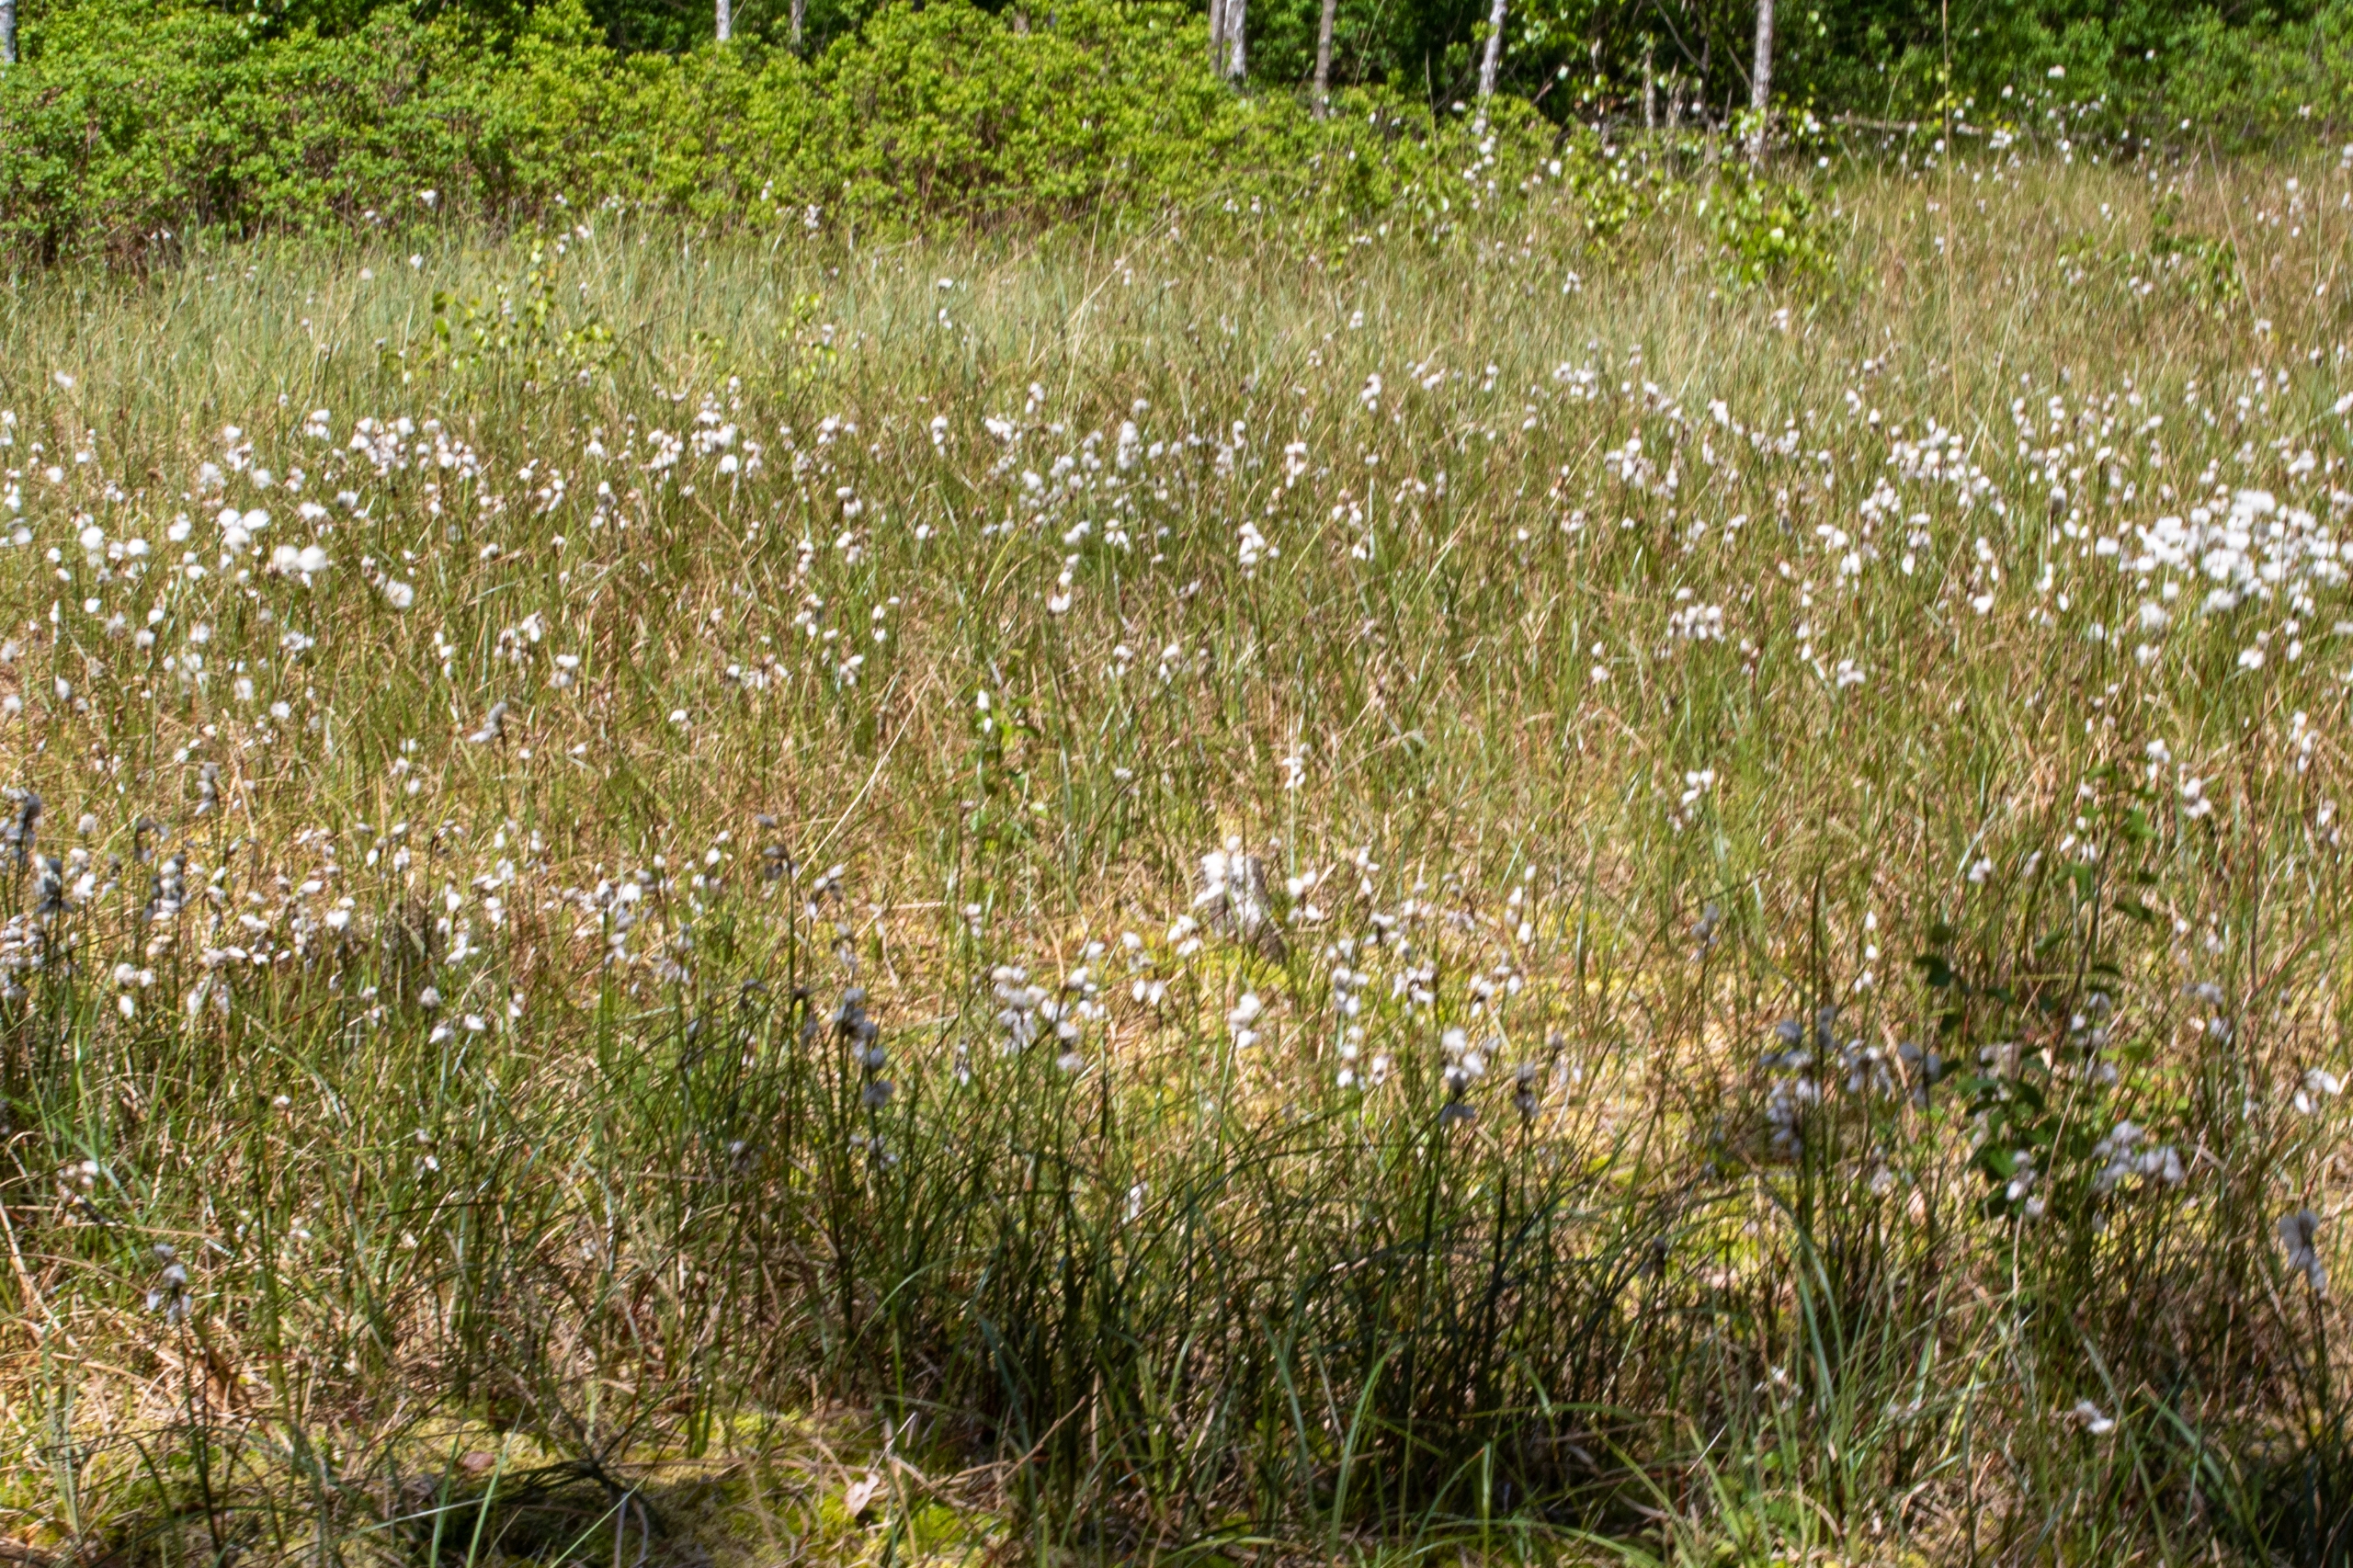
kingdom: Plantae
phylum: Tracheophyta
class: Liliopsida
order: Poales
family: Cyperaceae
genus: Eriophorum
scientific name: Eriophorum angustifolium
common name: Smalbladet kæruld
